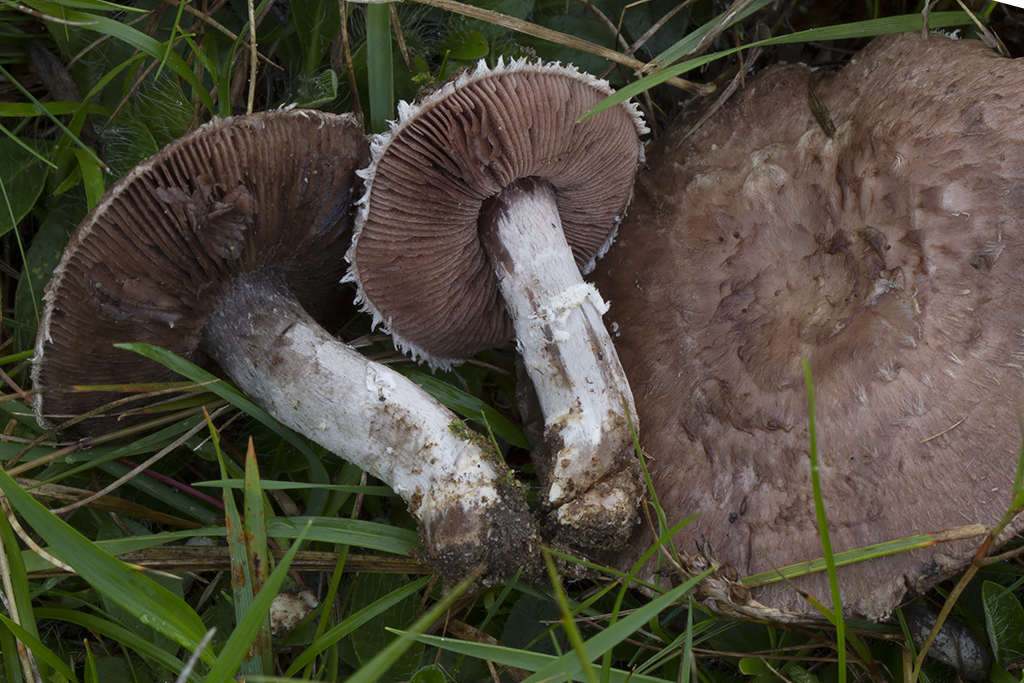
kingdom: Fungi
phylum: Basidiomycota
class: Agaricomycetes
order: Agaricales
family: Agaricaceae
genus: Agaricus
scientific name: Agaricus cupreobrunneus
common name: kobberbrun champignon
